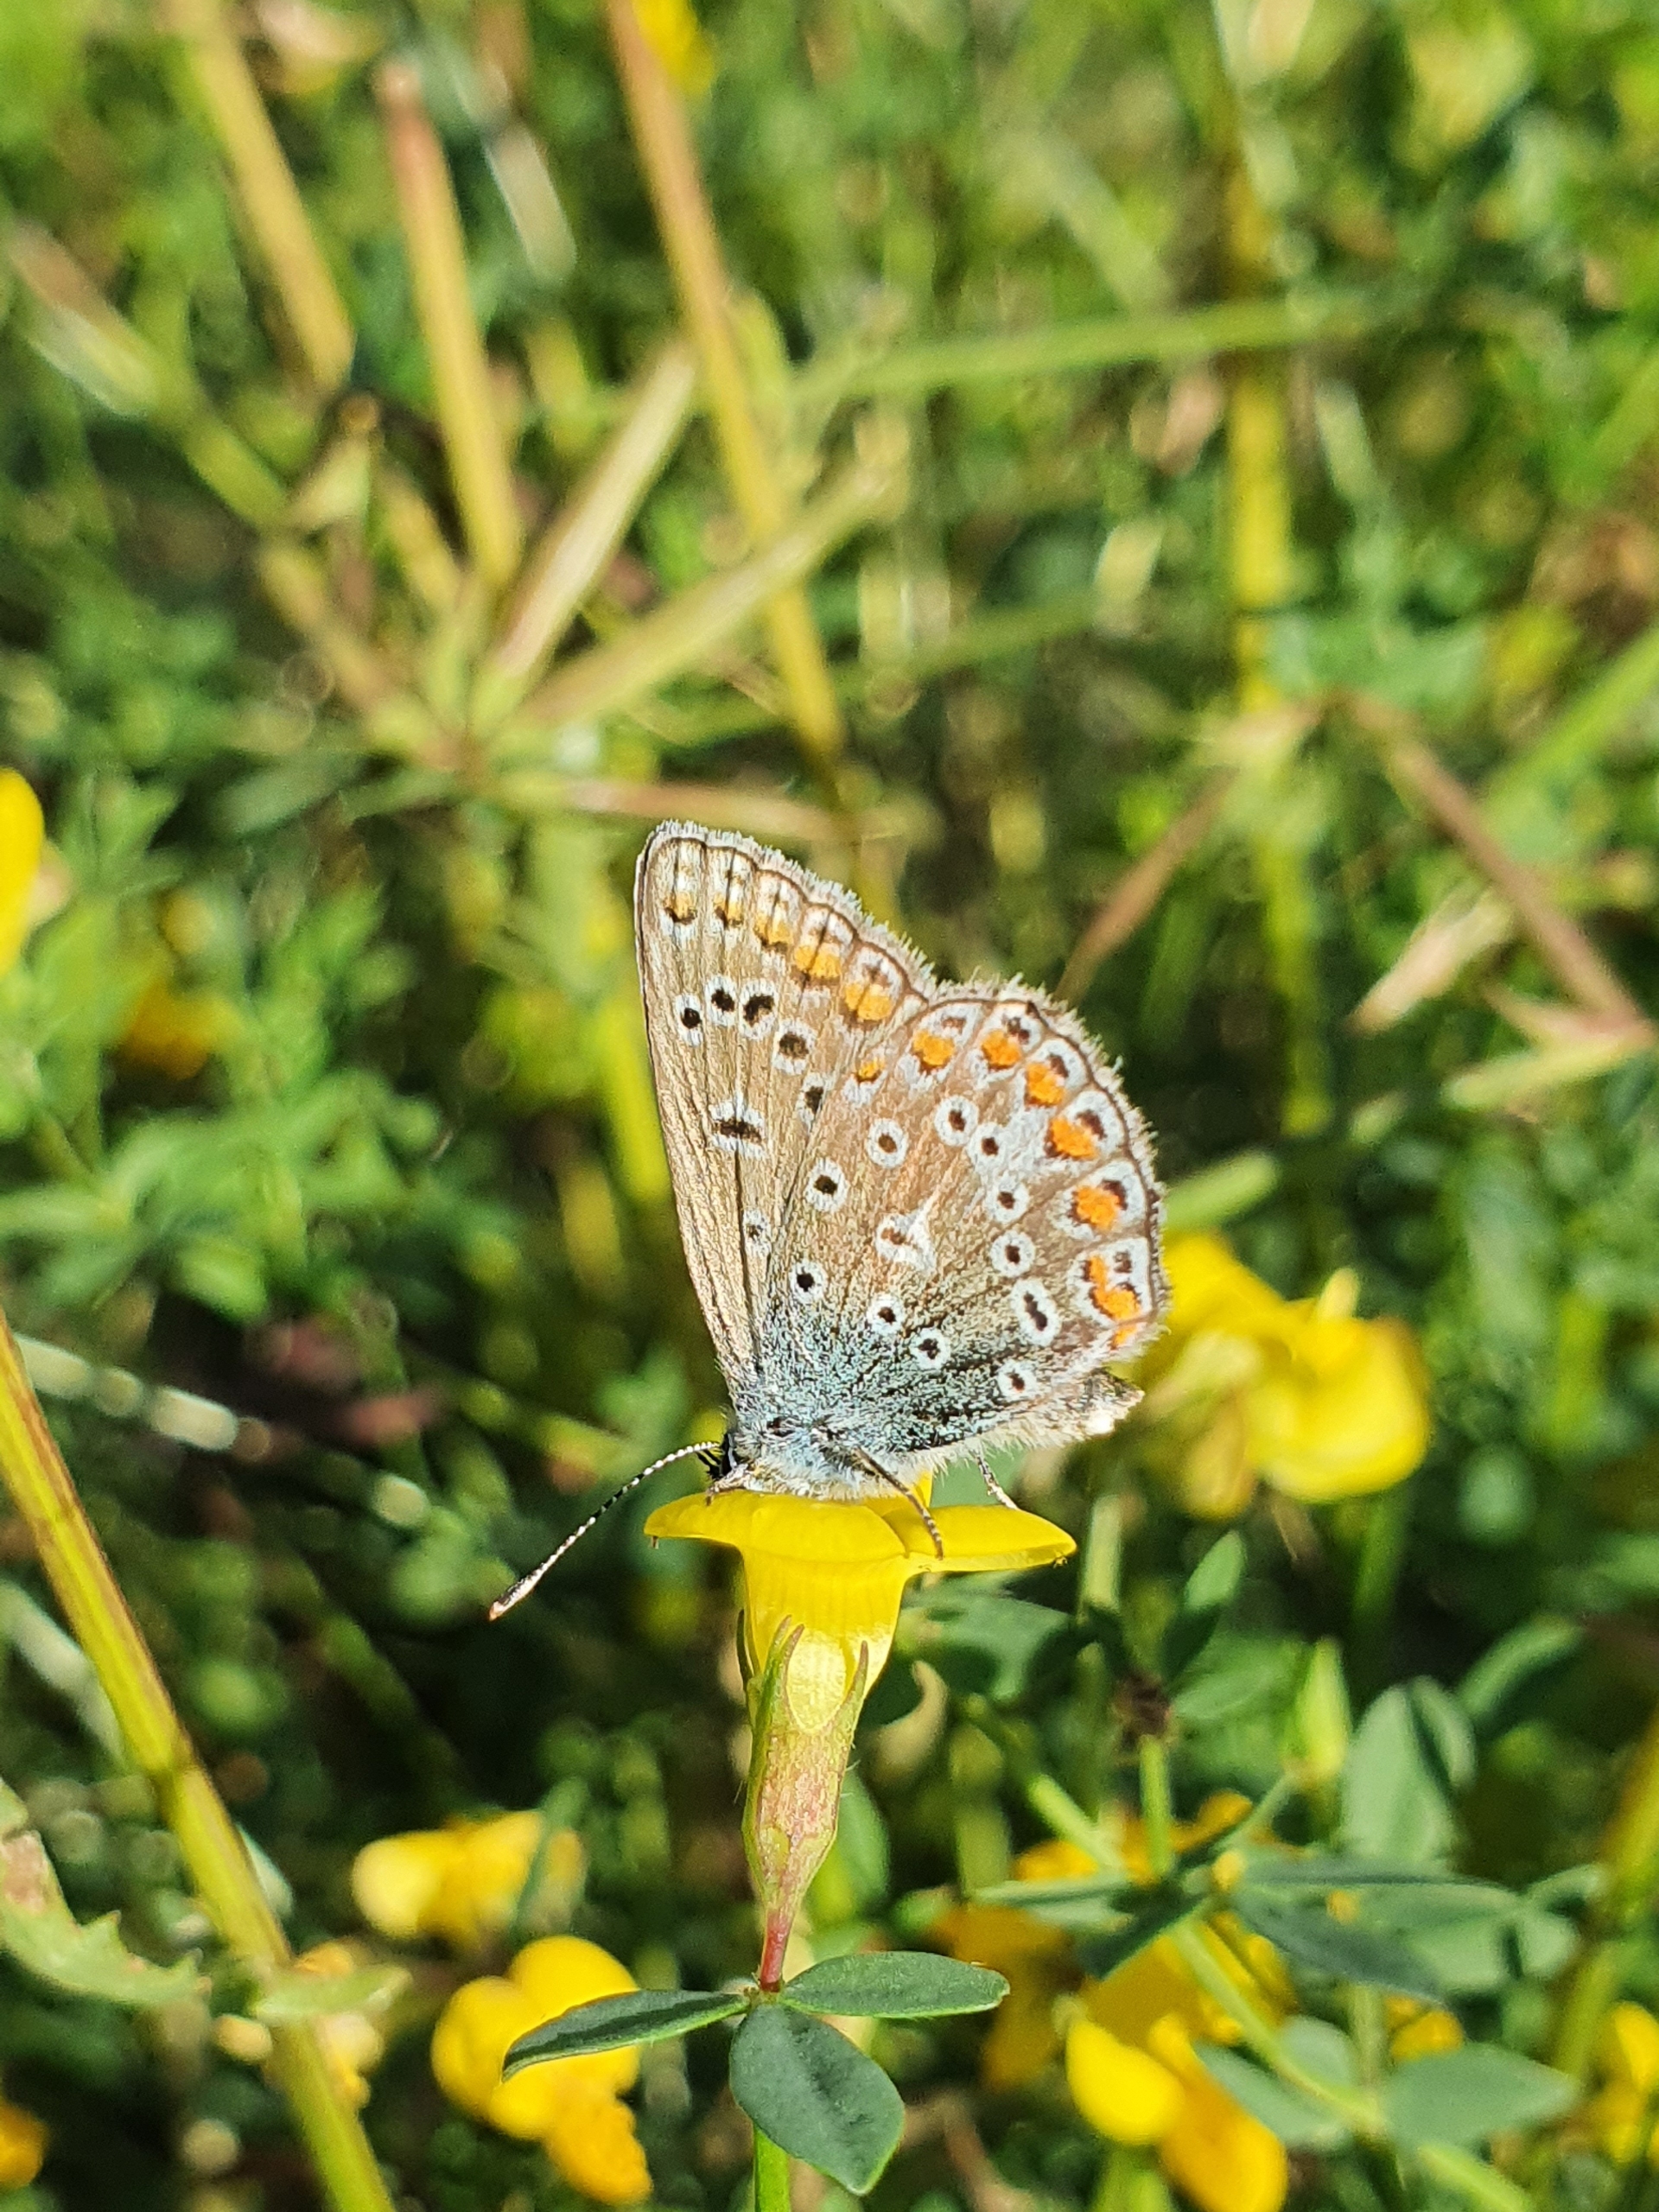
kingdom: Animalia
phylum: Arthropoda
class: Insecta
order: Lepidoptera
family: Lycaenidae
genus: Polyommatus
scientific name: Polyommatus icarus
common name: Almindelig blåfugl
